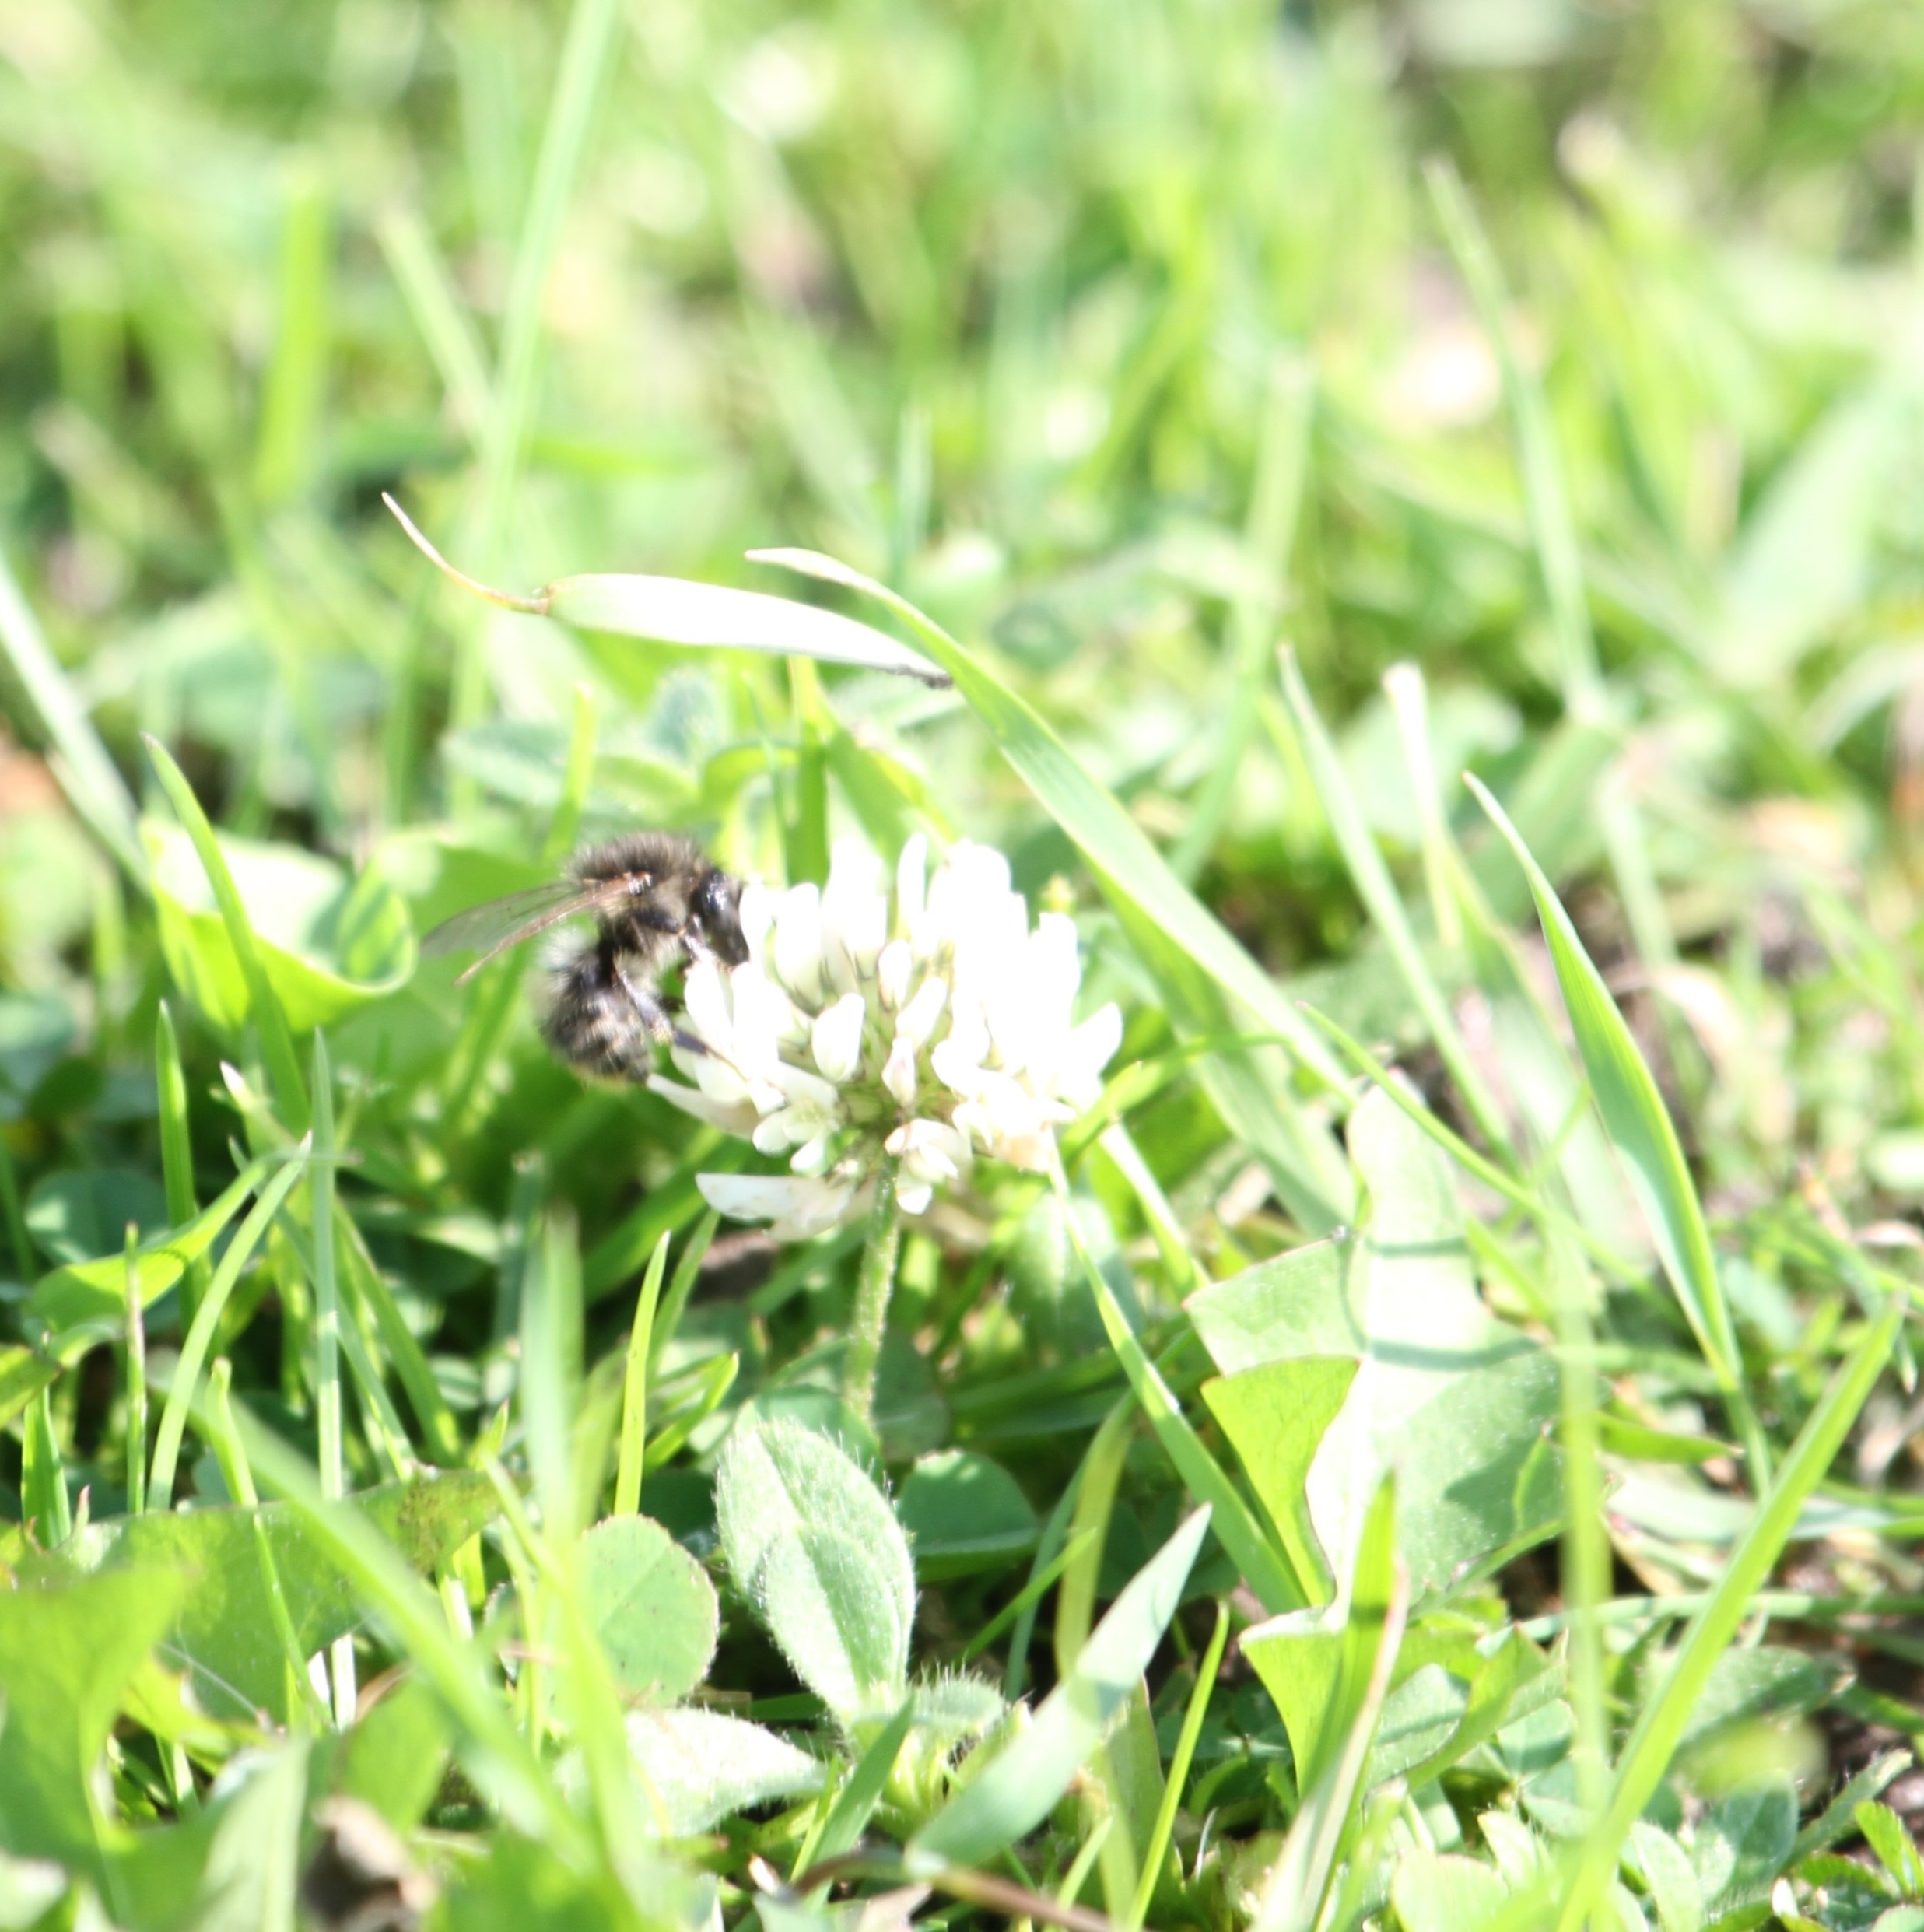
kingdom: Plantae
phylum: Tracheophyta
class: Magnoliopsida
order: Fabales
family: Fabaceae
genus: Trifolium
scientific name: Trifolium repens
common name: Hvid-kløver
